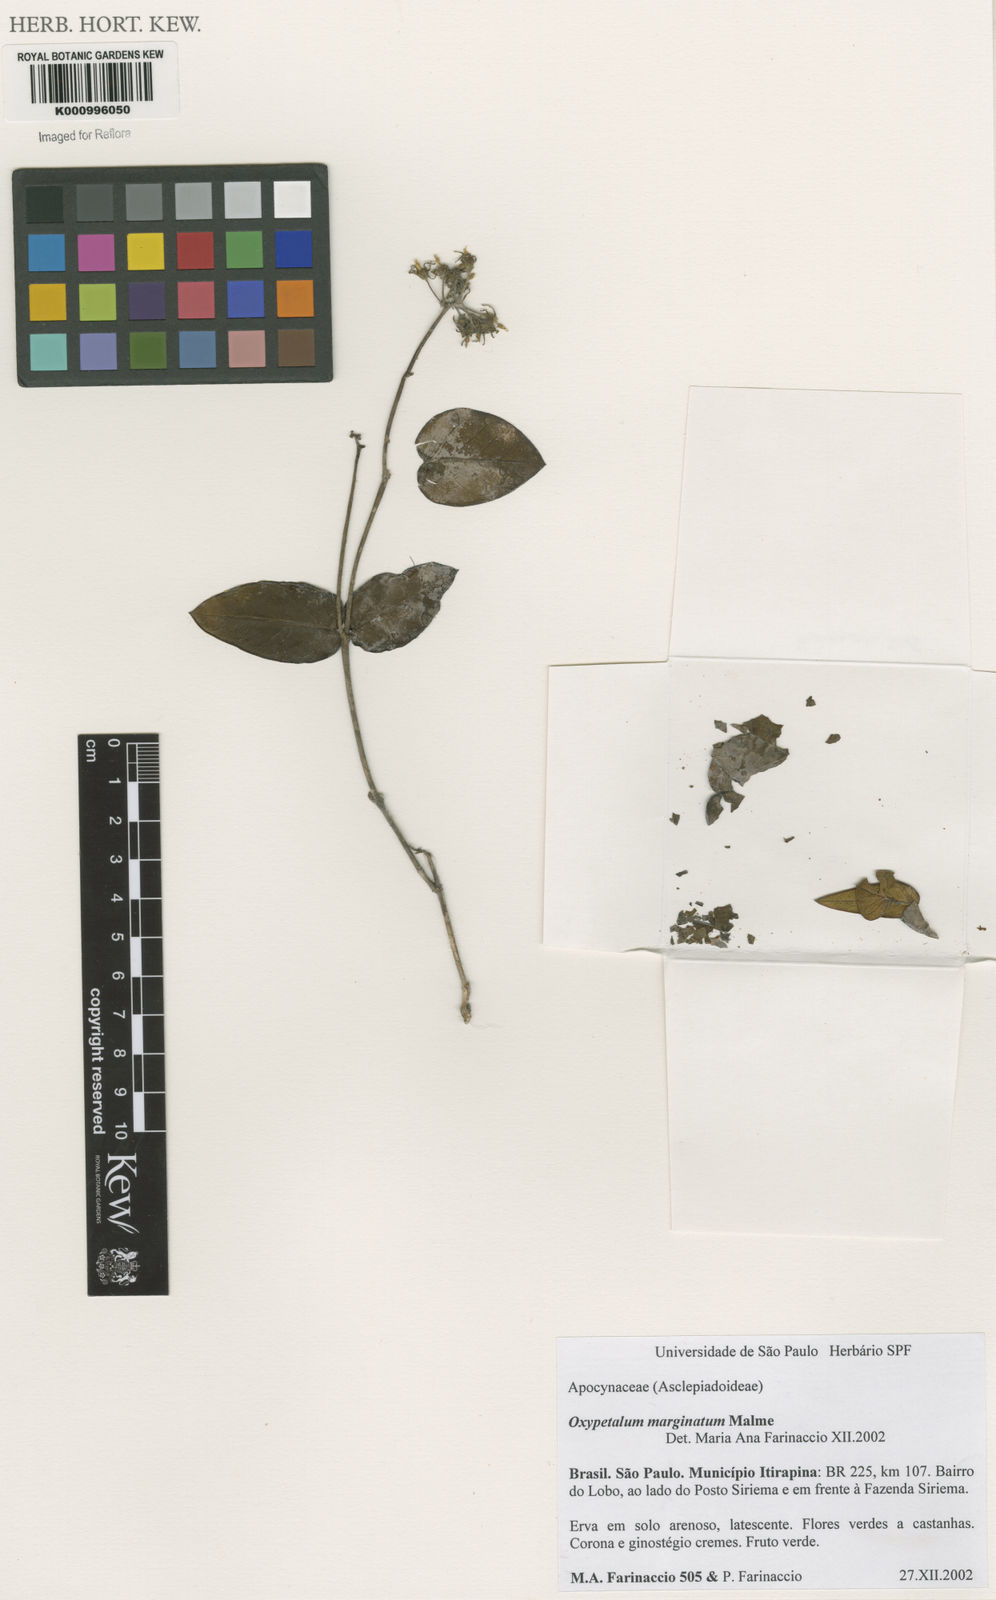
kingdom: Plantae
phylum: Tracheophyta
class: Magnoliopsida
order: Gentianales
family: Apocynaceae
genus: Oxypetalum
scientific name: Oxypetalum marginatum
